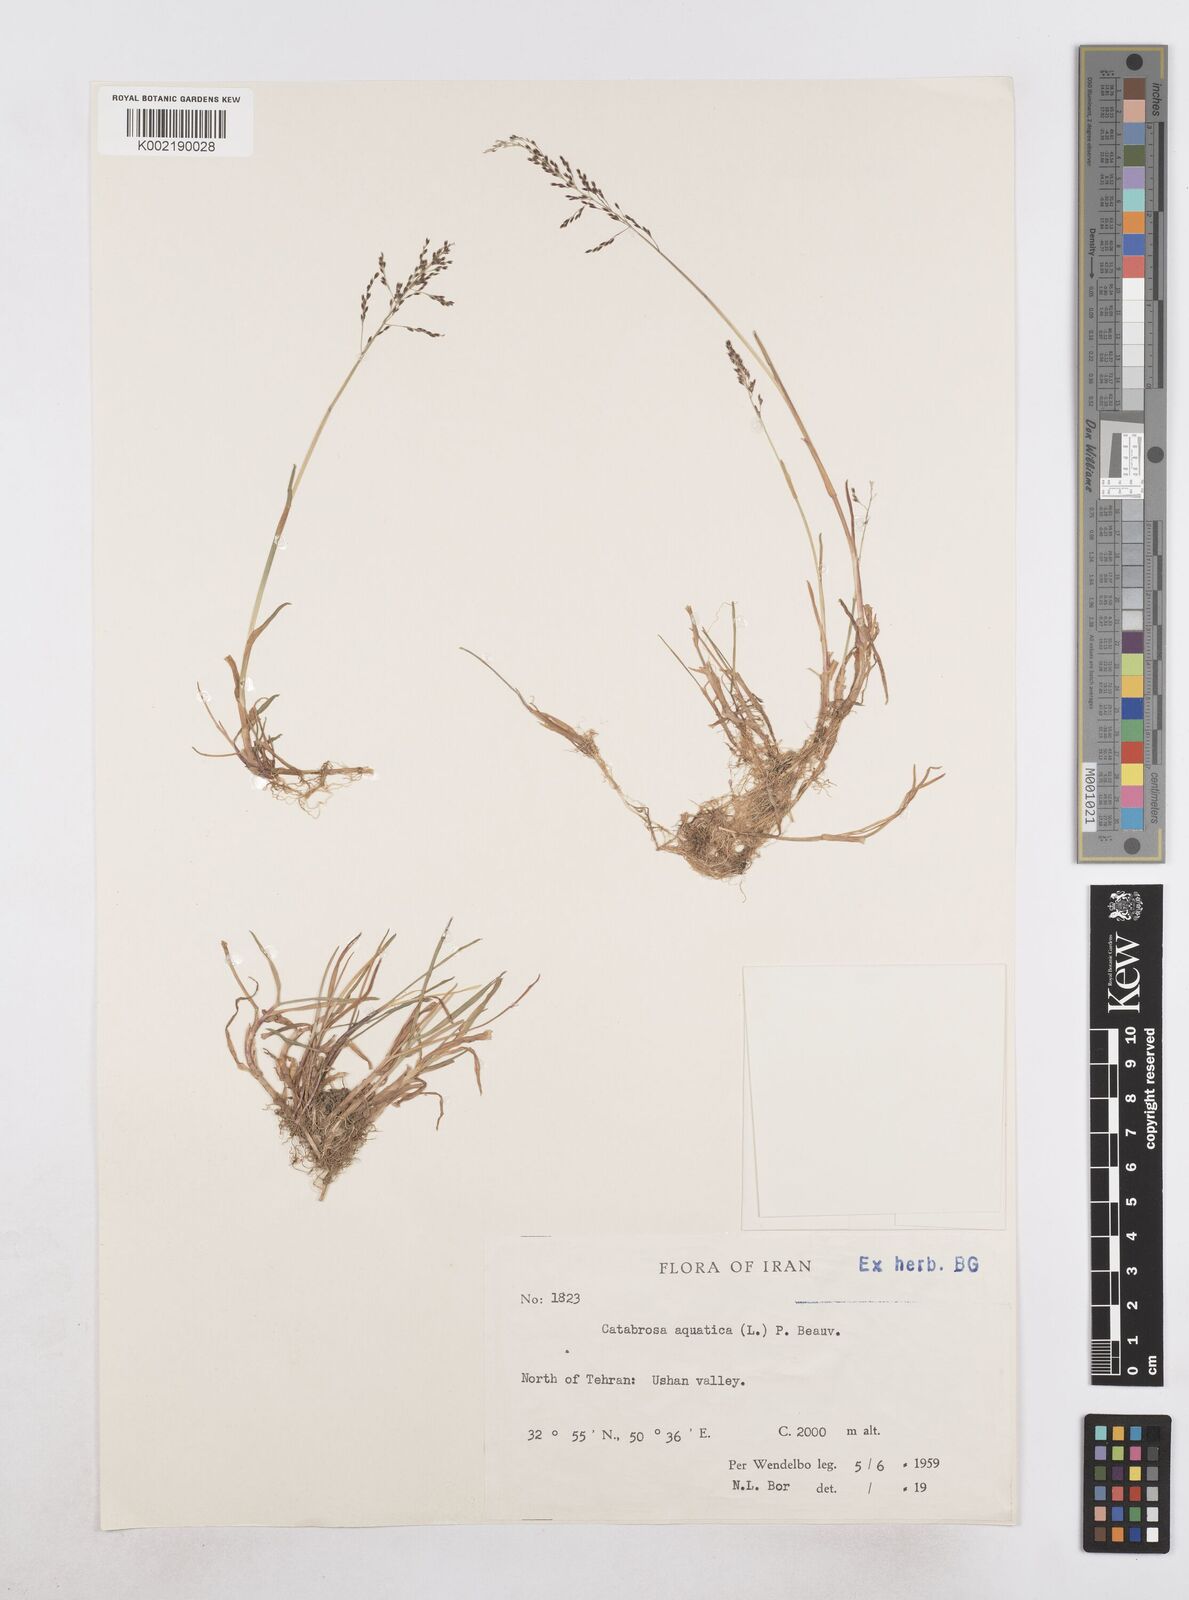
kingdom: Plantae
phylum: Tracheophyta
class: Liliopsida
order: Poales
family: Poaceae
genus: Catabrosa
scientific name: Catabrosa aquatica
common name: Whorl-grass
